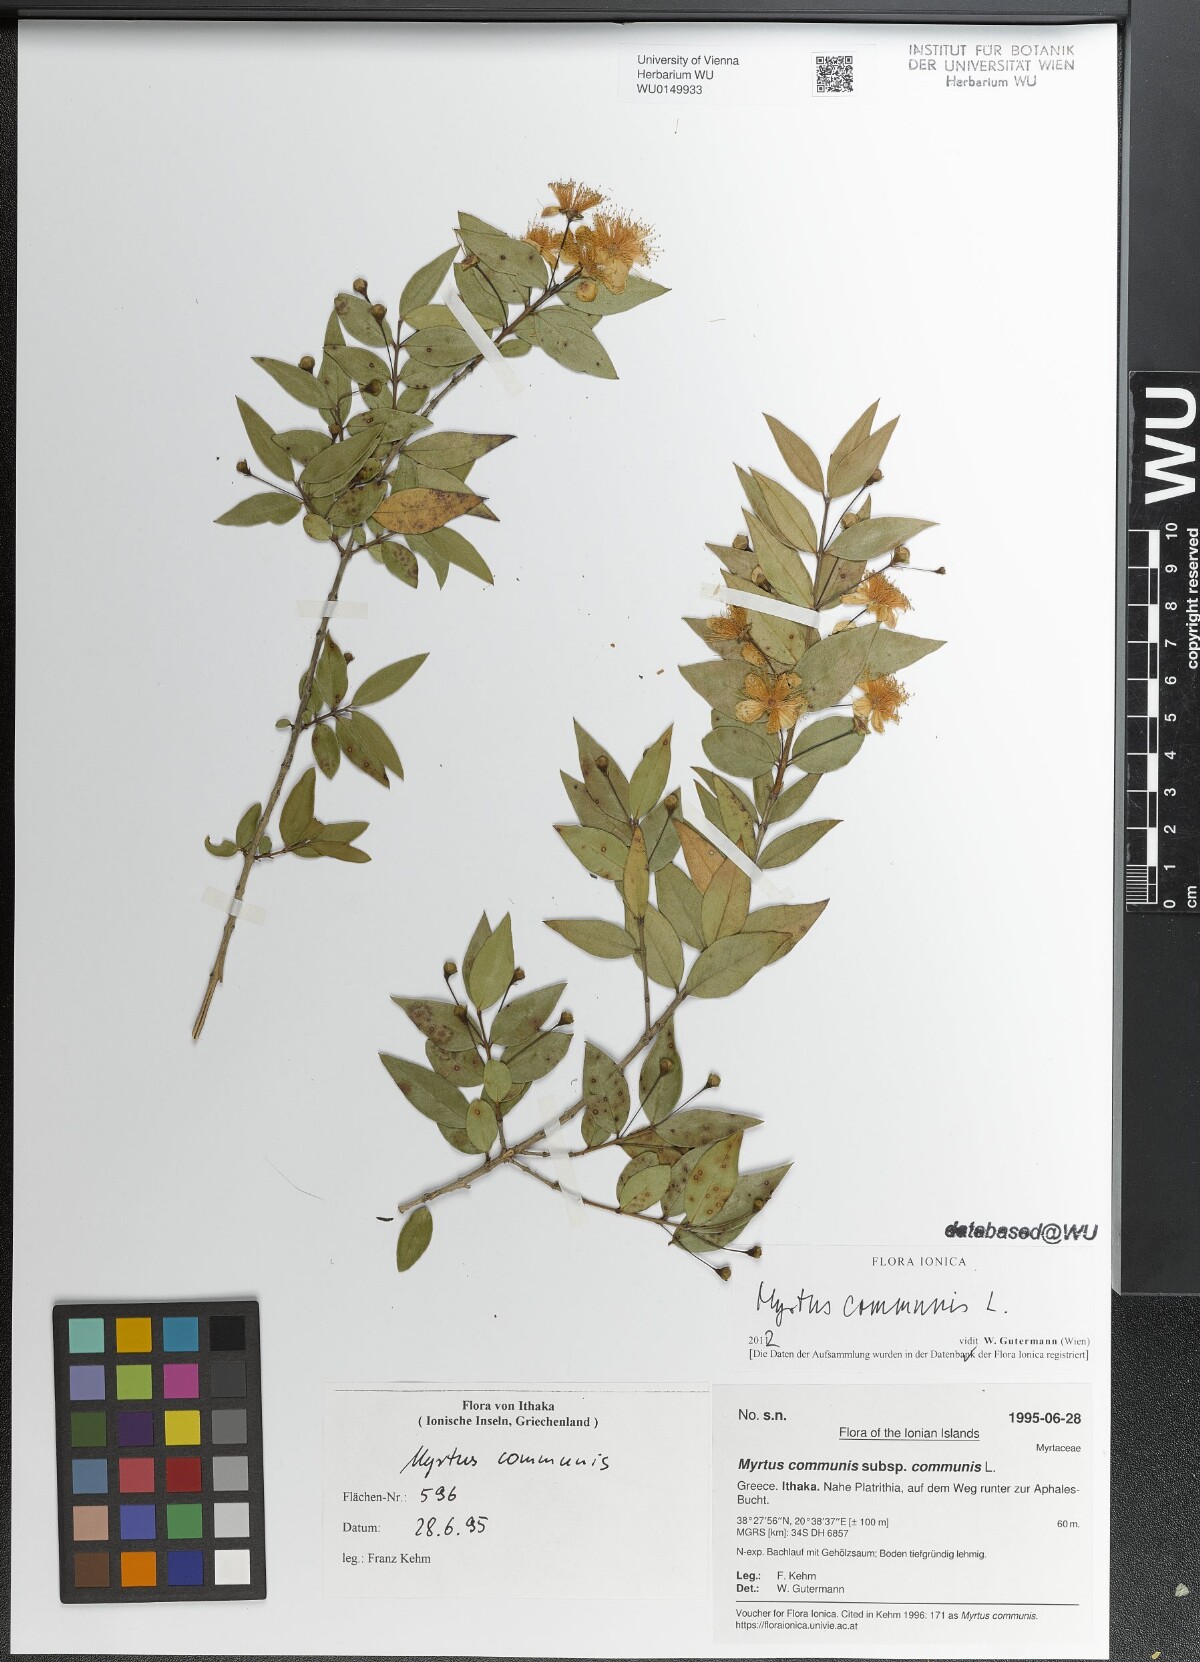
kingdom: Plantae
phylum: Tracheophyta
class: Magnoliopsida
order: Myrtales
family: Myrtaceae
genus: Myrtus
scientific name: Myrtus communis
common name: Myrtle
